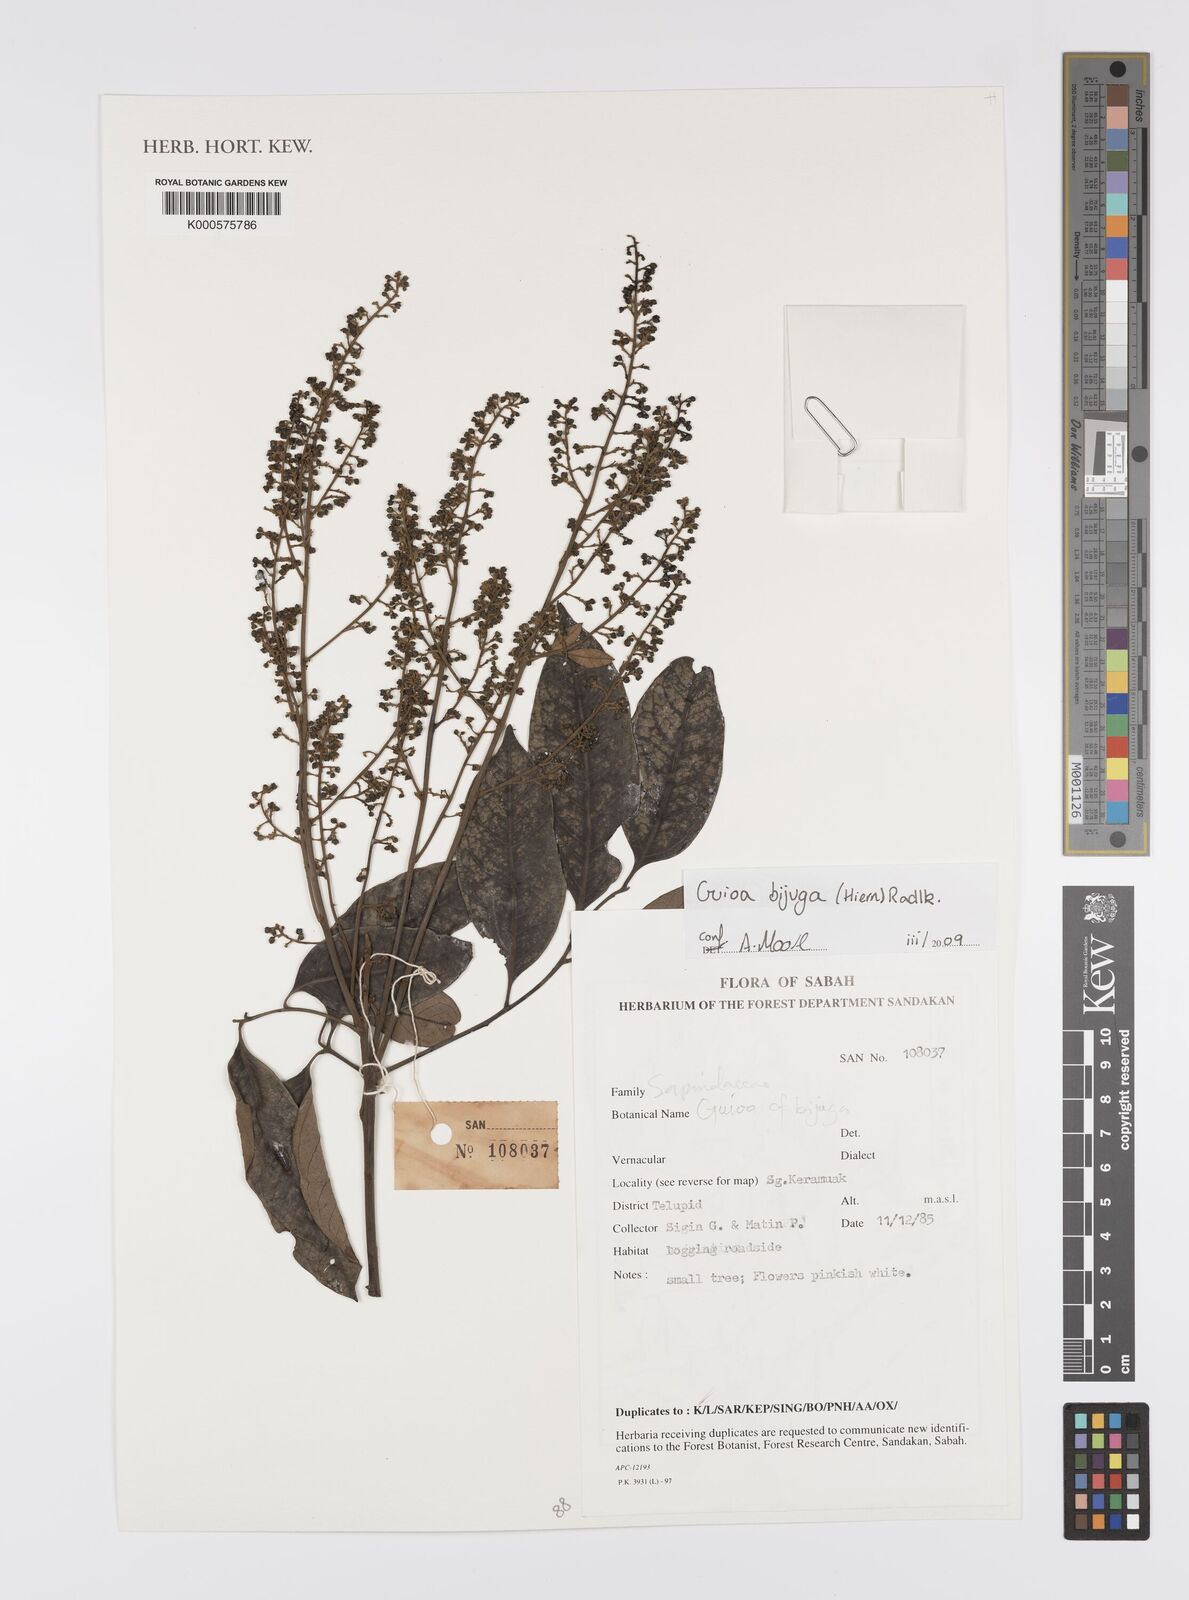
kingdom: Plantae
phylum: Tracheophyta
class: Magnoliopsida
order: Sapindales
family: Sapindaceae
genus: Guioa
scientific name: Guioa bijuga
